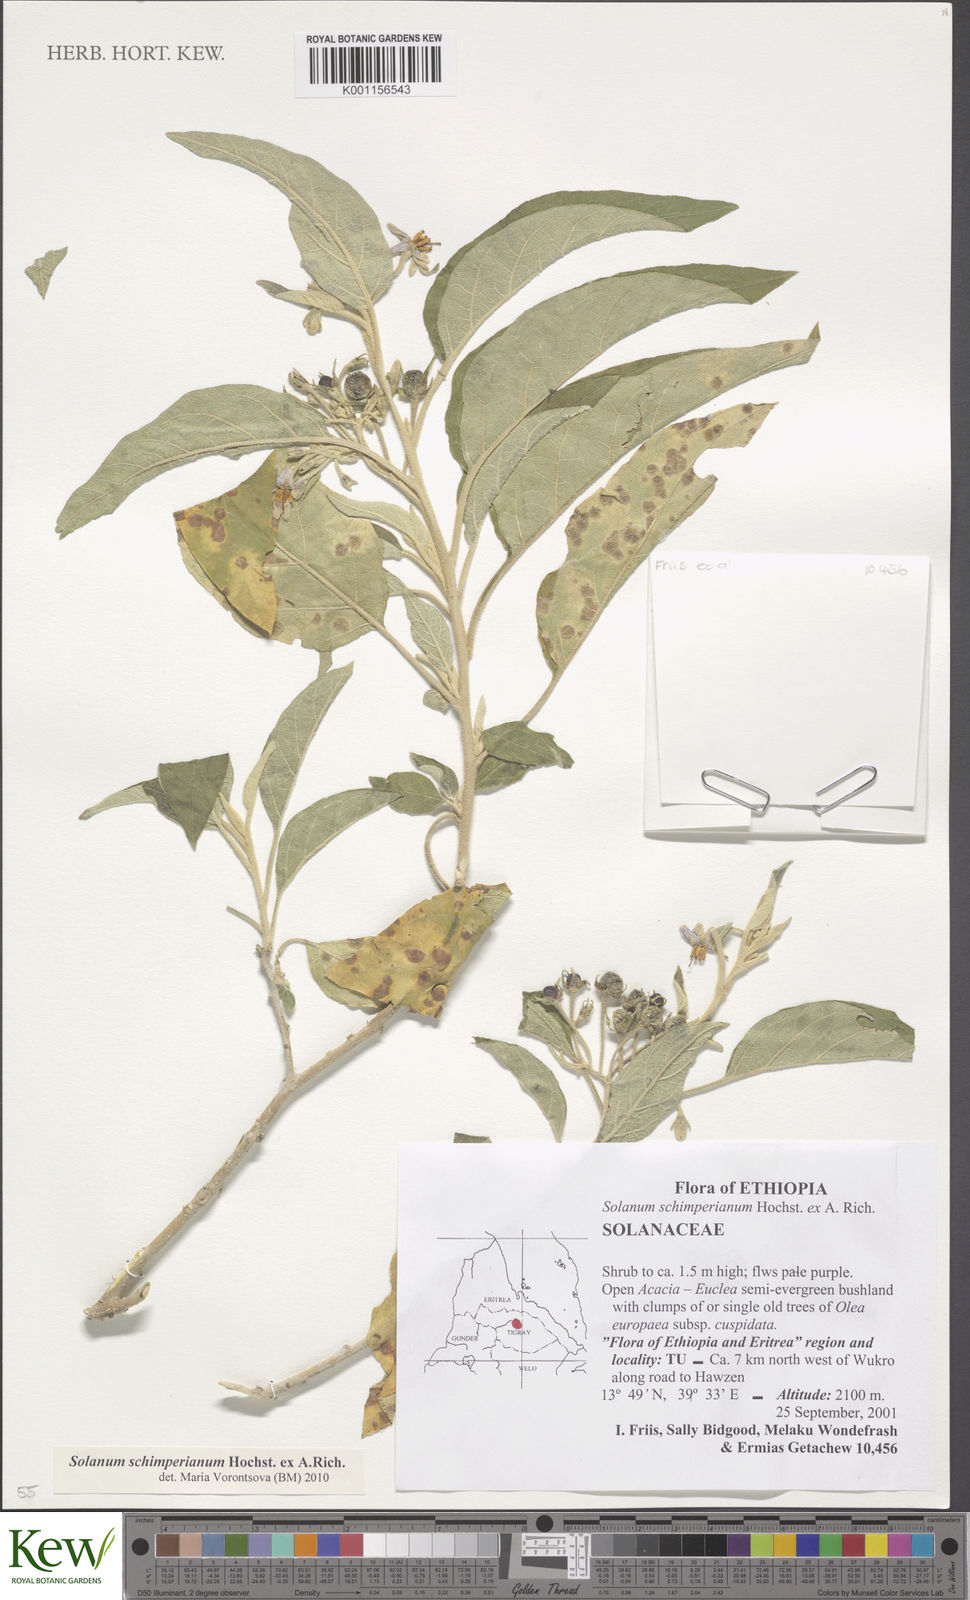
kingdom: Plantae
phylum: Tracheophyta
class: Magnoliopsida
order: Solanales
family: Solanaceae
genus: Solanum
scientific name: Solanum
